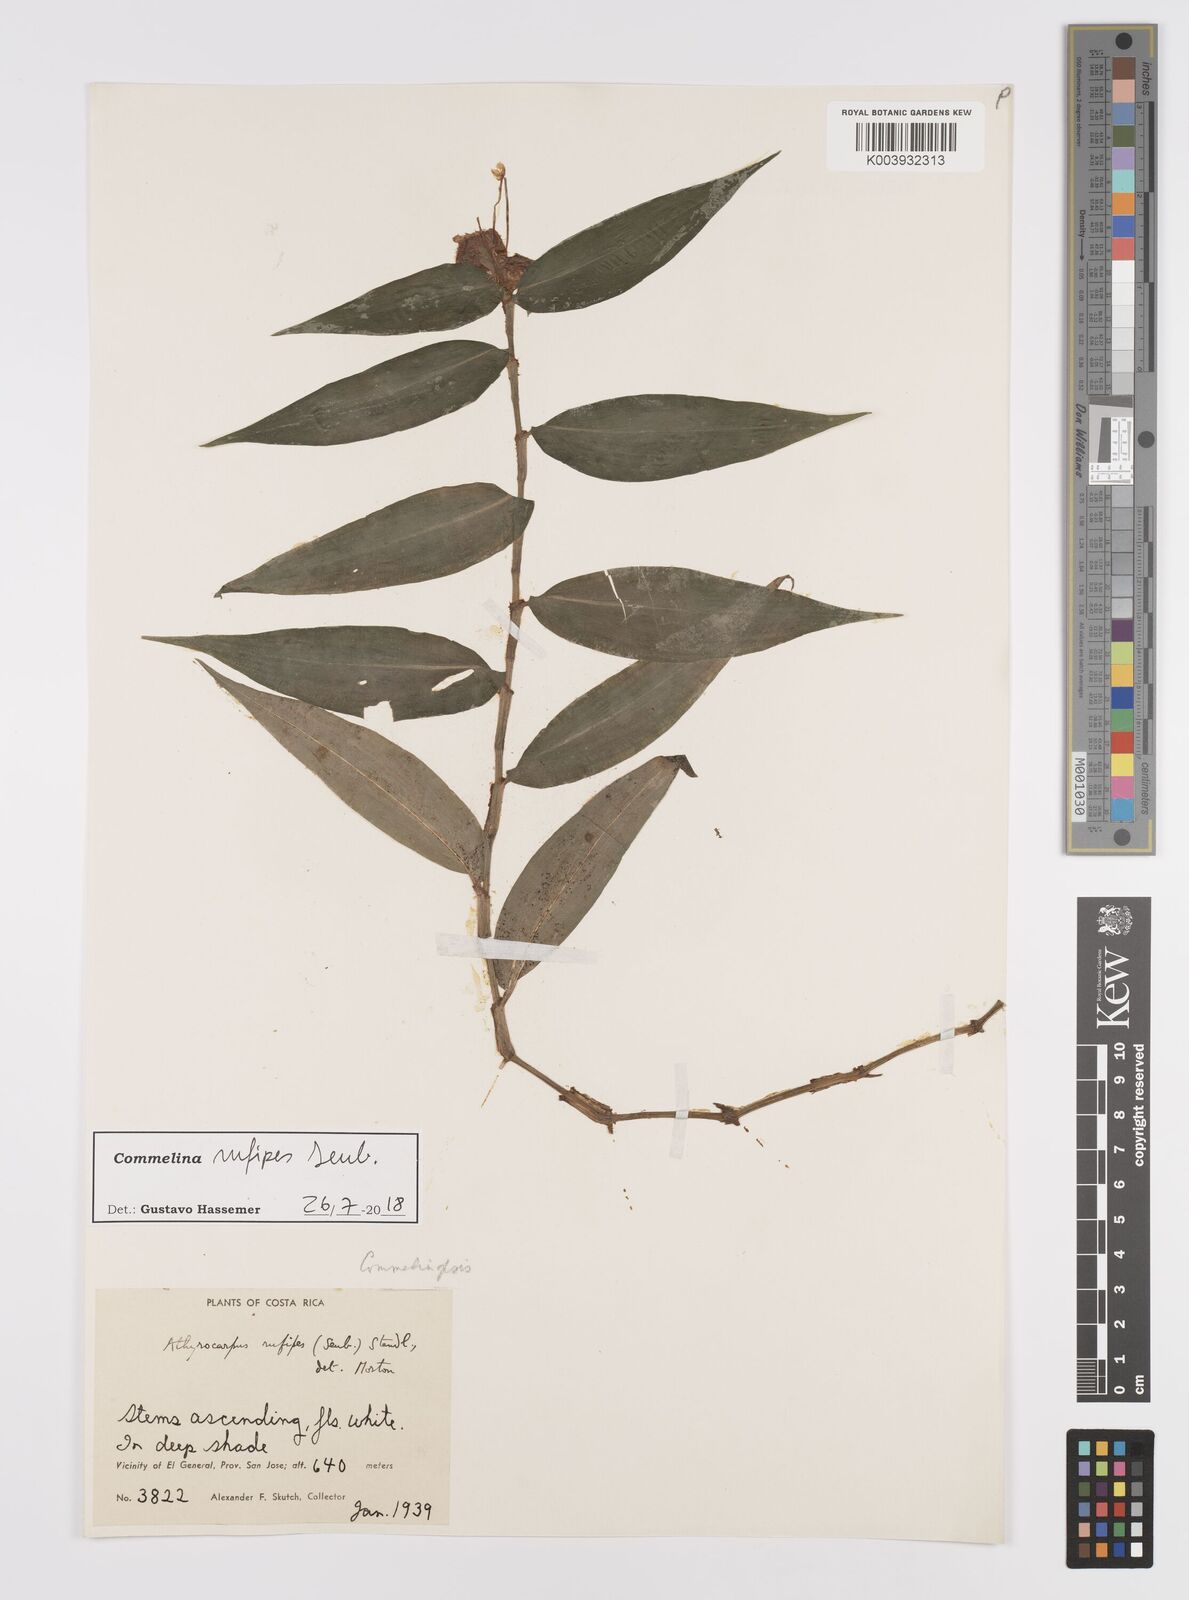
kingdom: Plantae
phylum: Tracheophyta
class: Liliopsida
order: Commelinales
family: Commelinaceae
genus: Commelina
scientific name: Commelina rufipes
